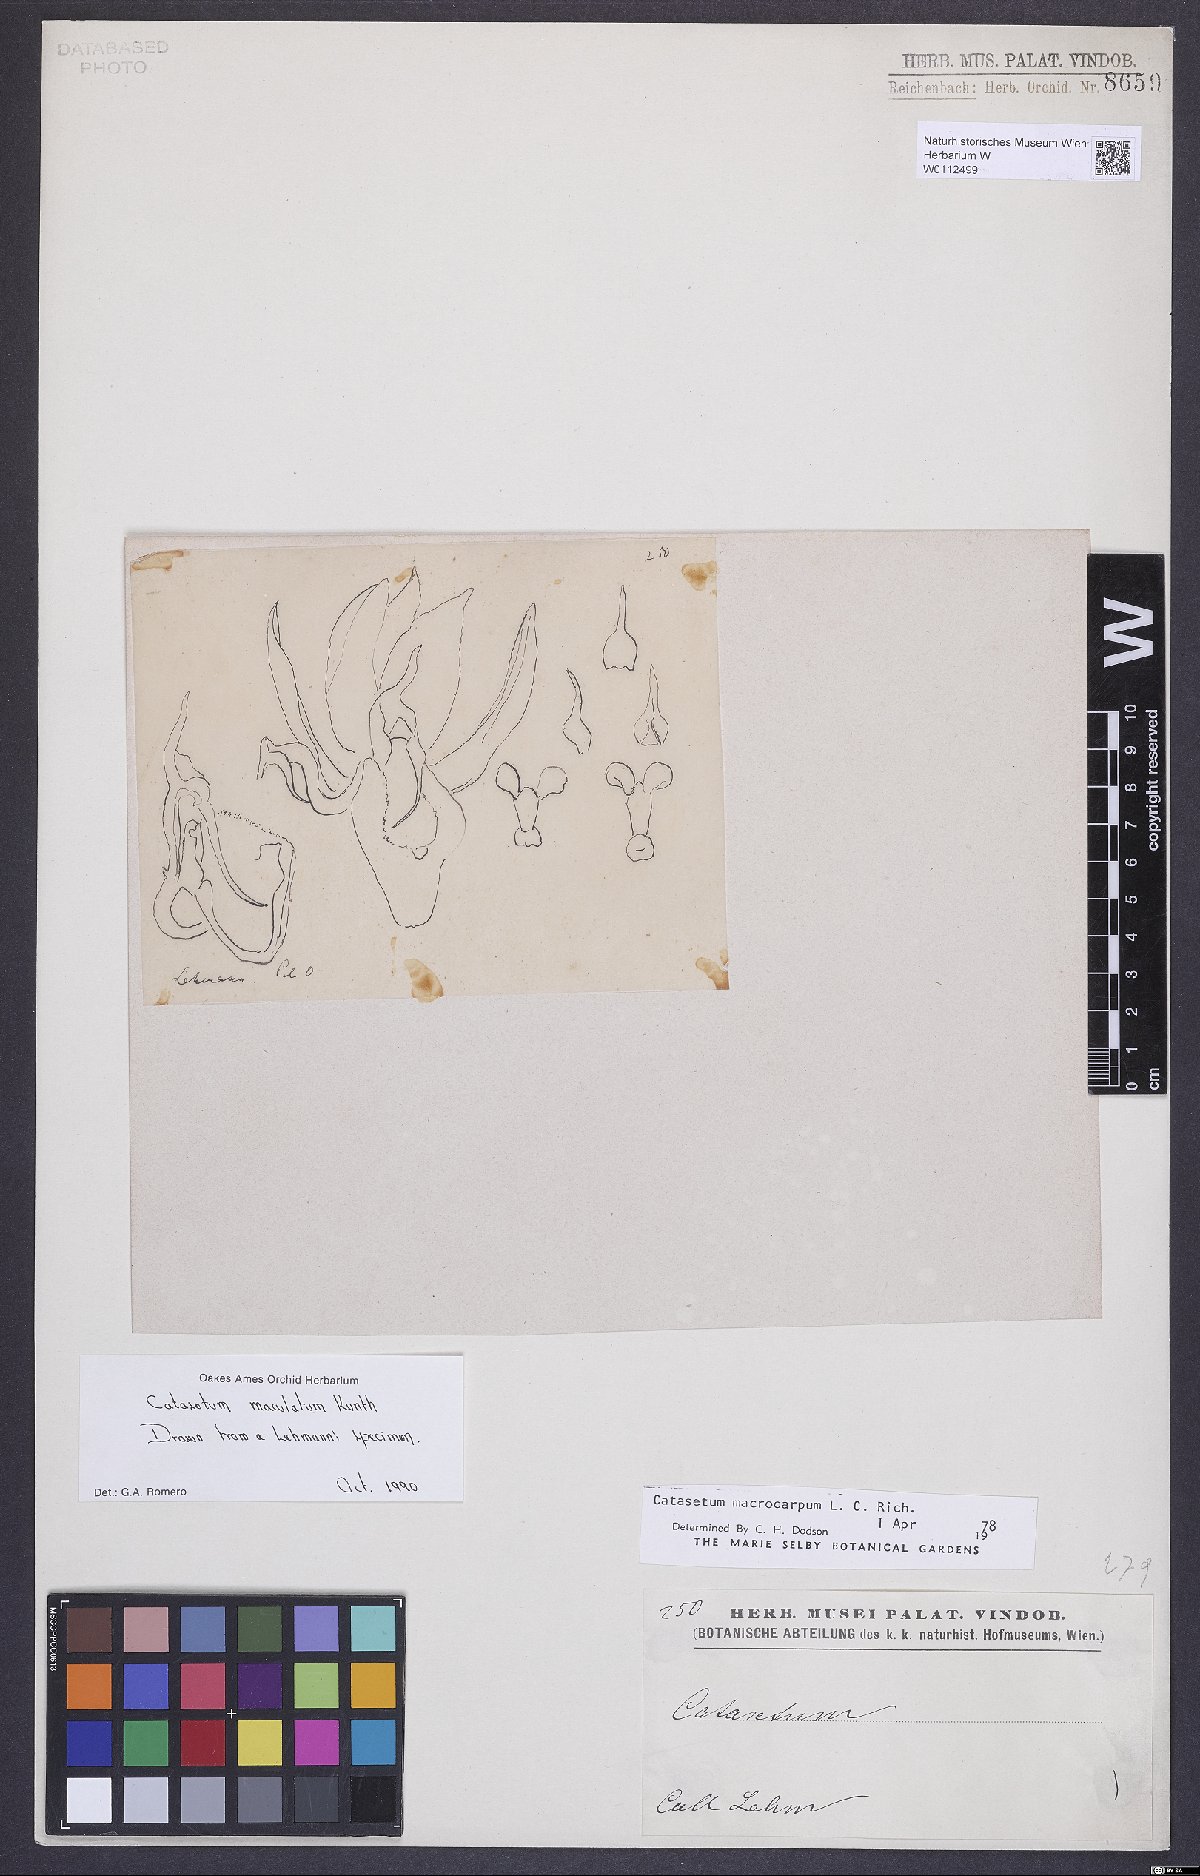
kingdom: Plantae
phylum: Tracheophyta
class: Liliopsida
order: Asparagales
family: Orchidaceae
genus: Catasetum
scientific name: Catasetum maculatum
